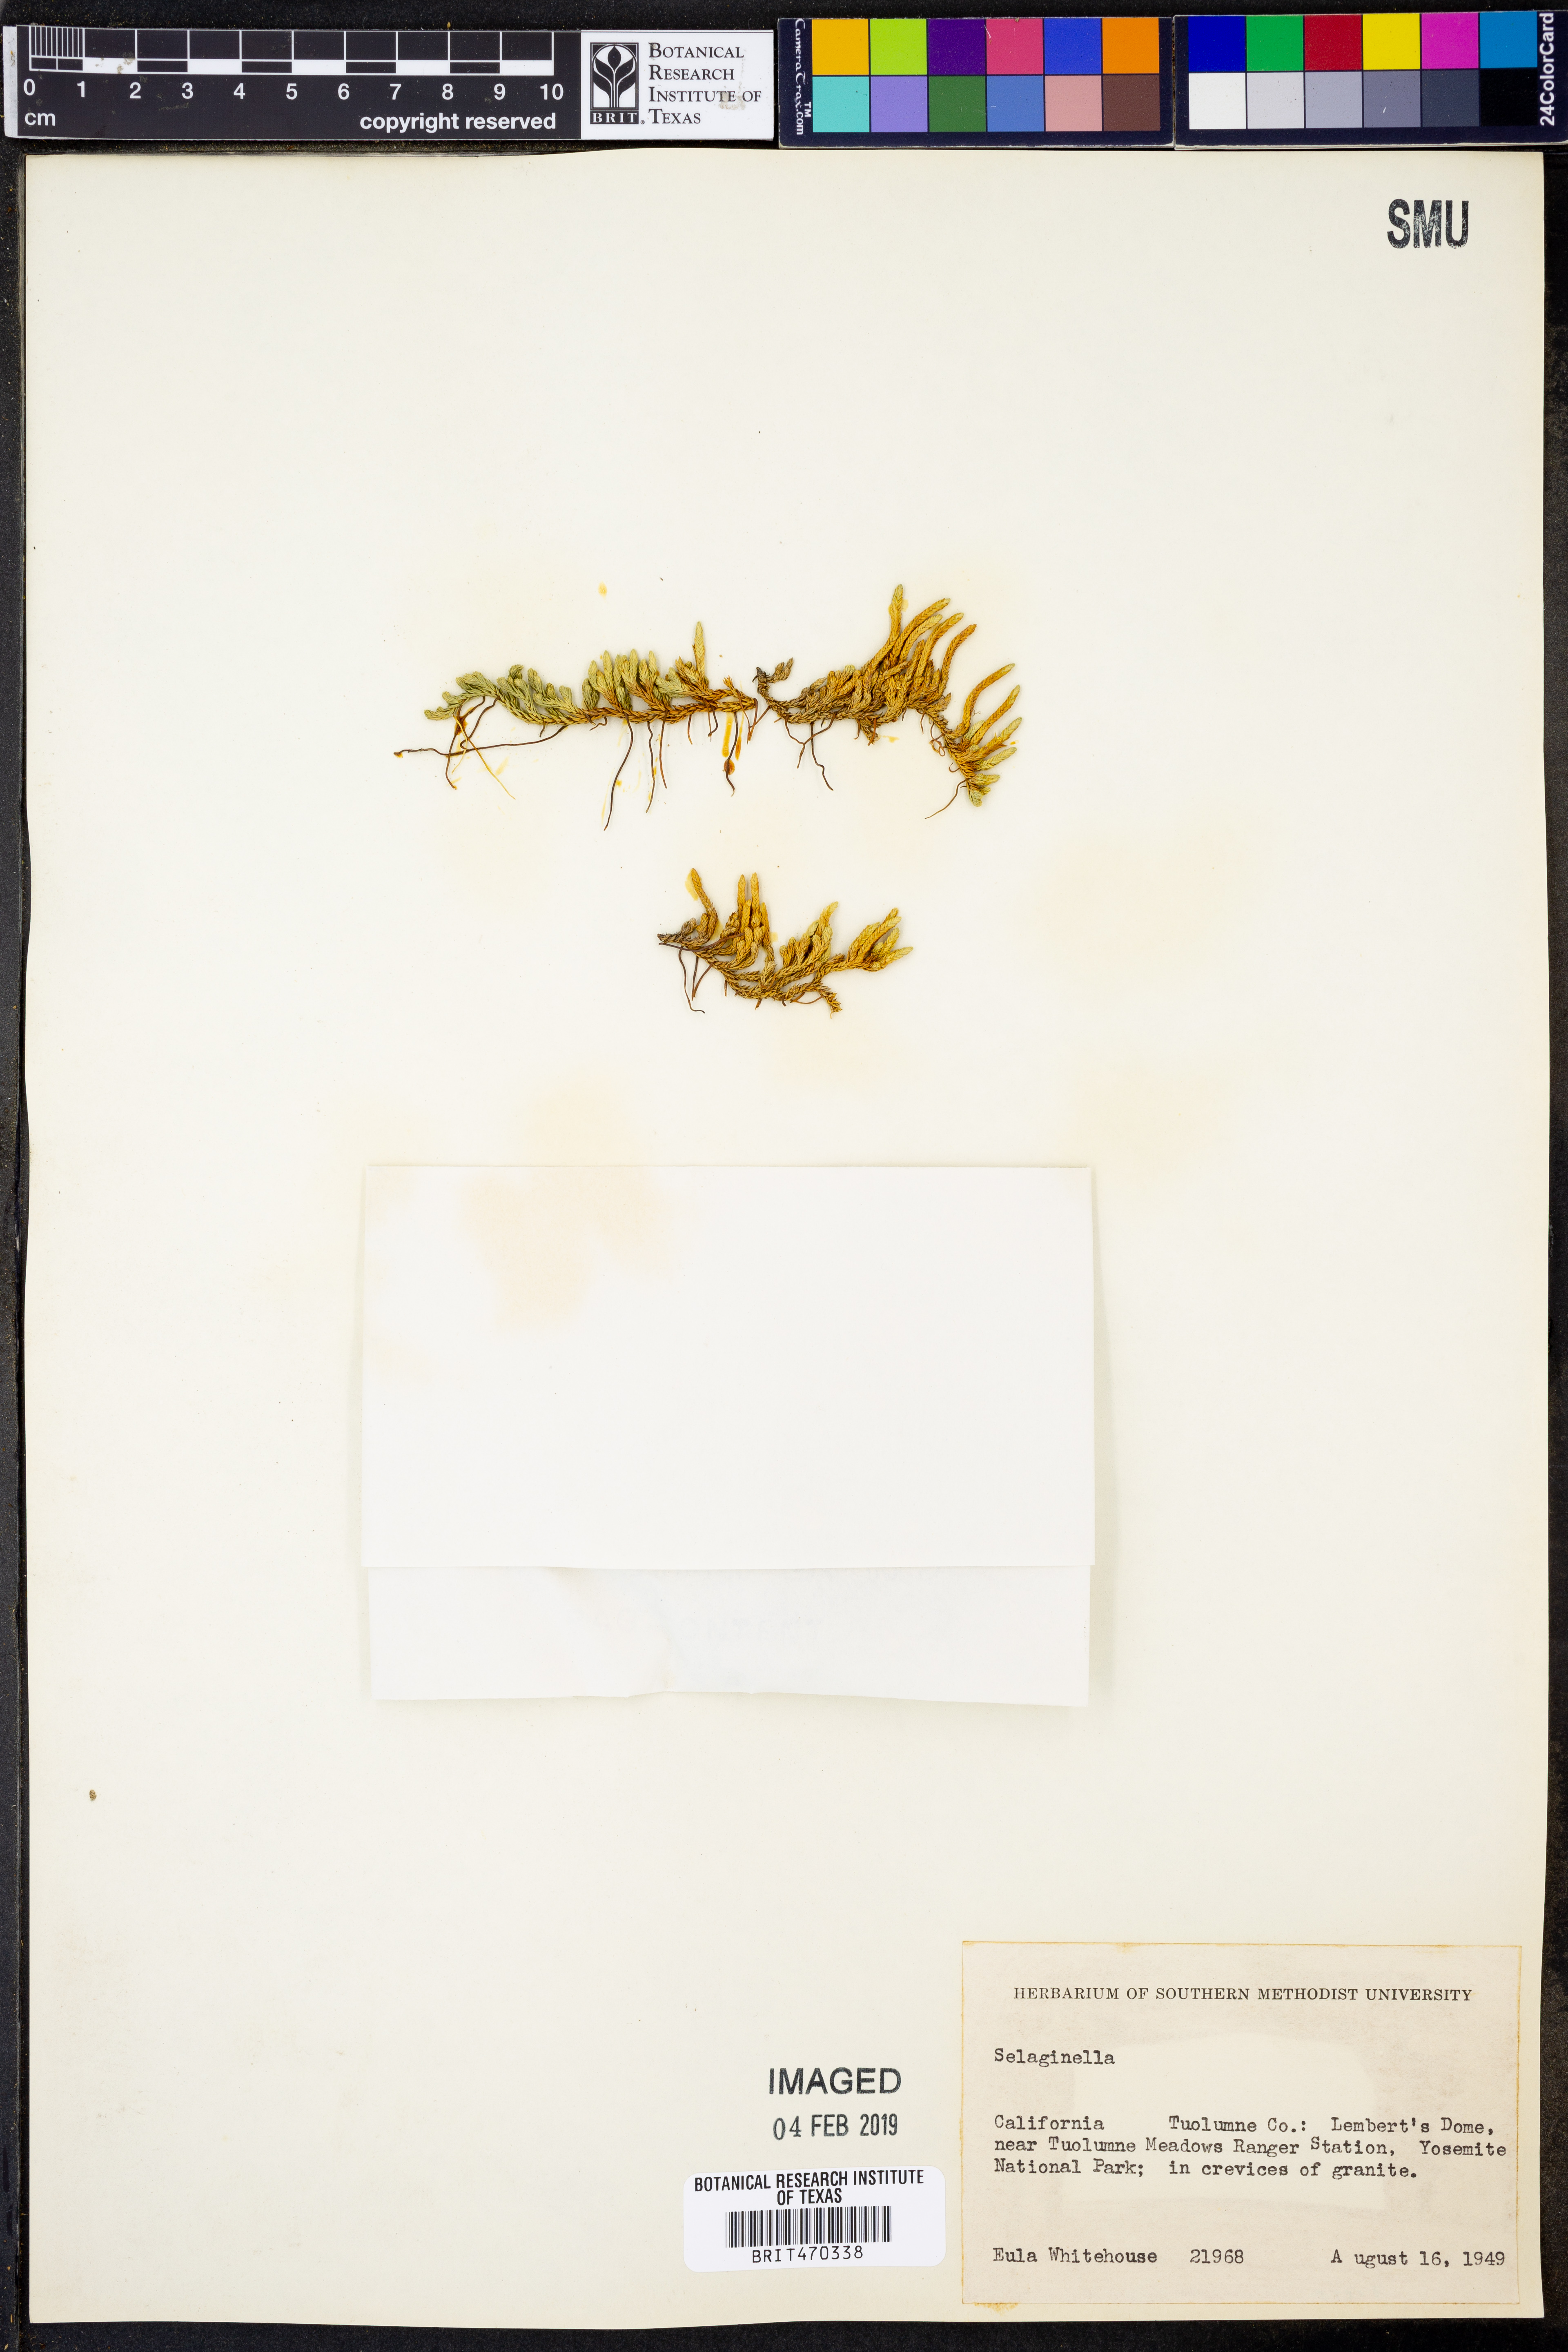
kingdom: Plantae
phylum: Tracheophyta
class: Lycopodiopsida
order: Selaginellales
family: Selaginellaceae
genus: Selaginella
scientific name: Selaginella
